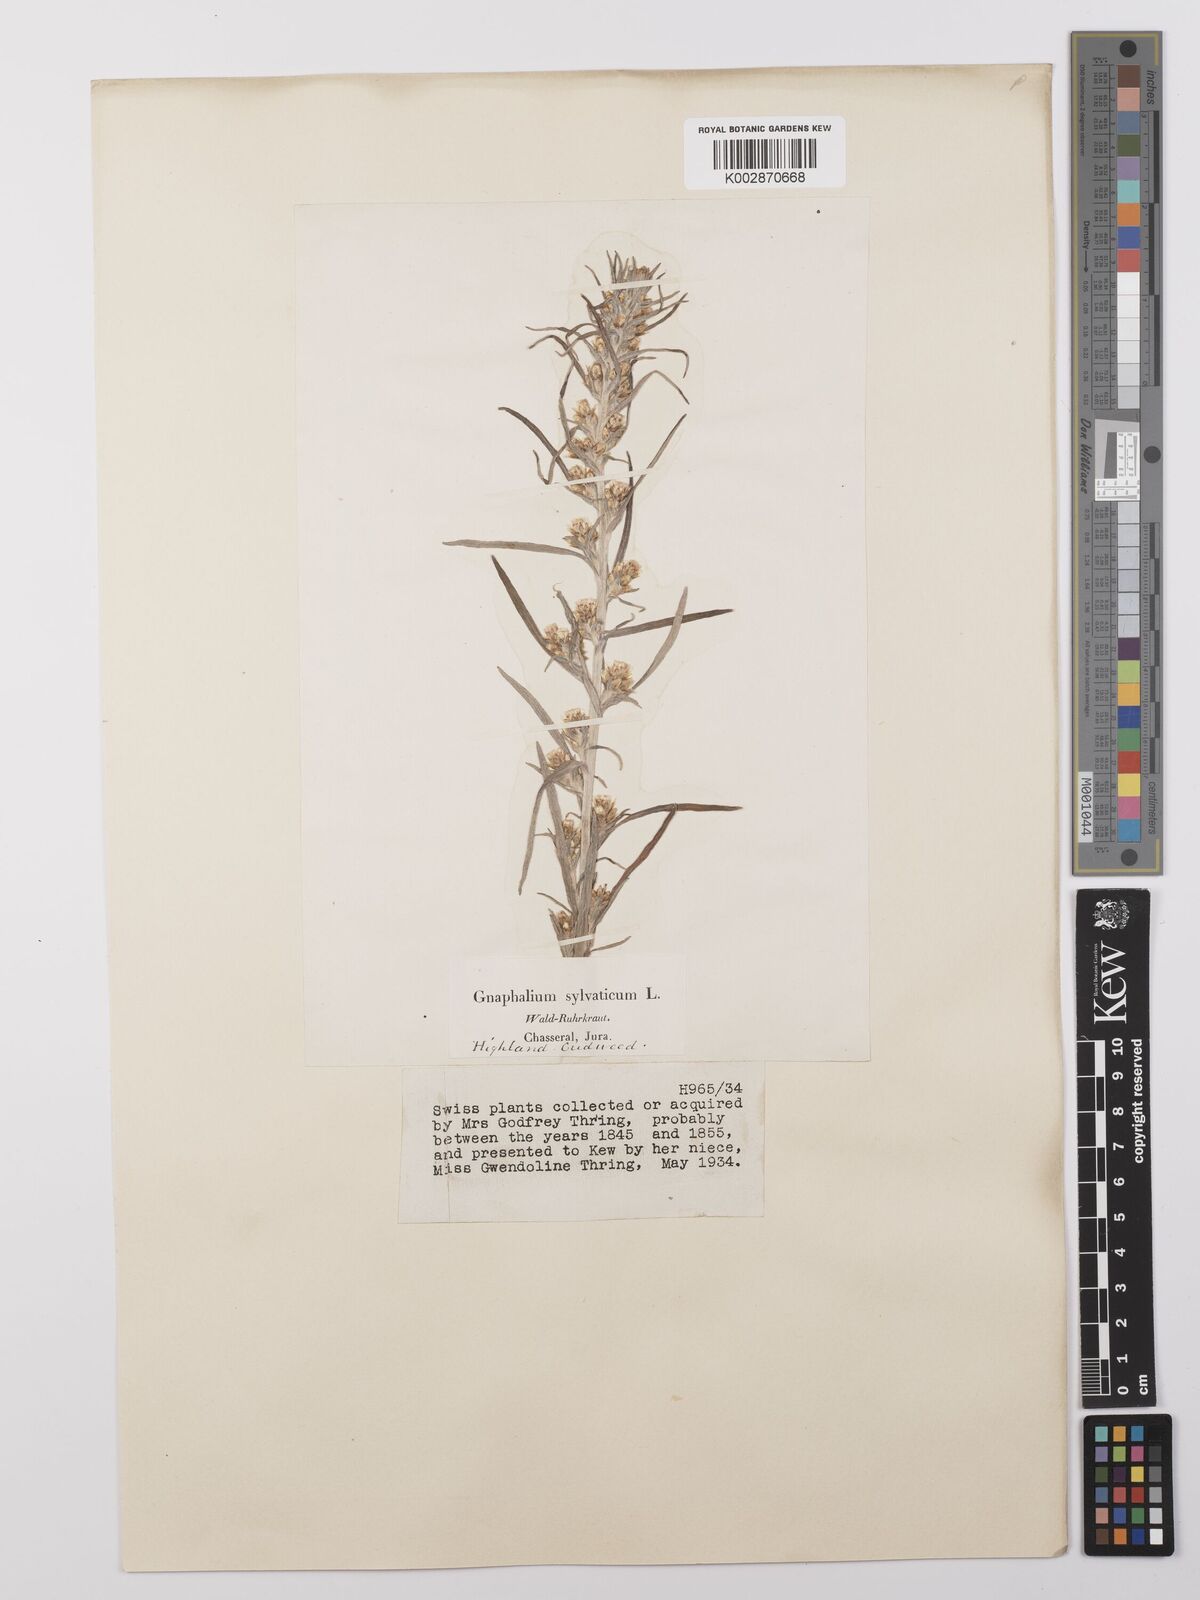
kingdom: Plantae
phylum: Tracheophyta
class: Magnoliopsida
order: Asterales
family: Asteraceae
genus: Omalotheca
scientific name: Omalotheca sylvatica
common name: Heath cudweed
